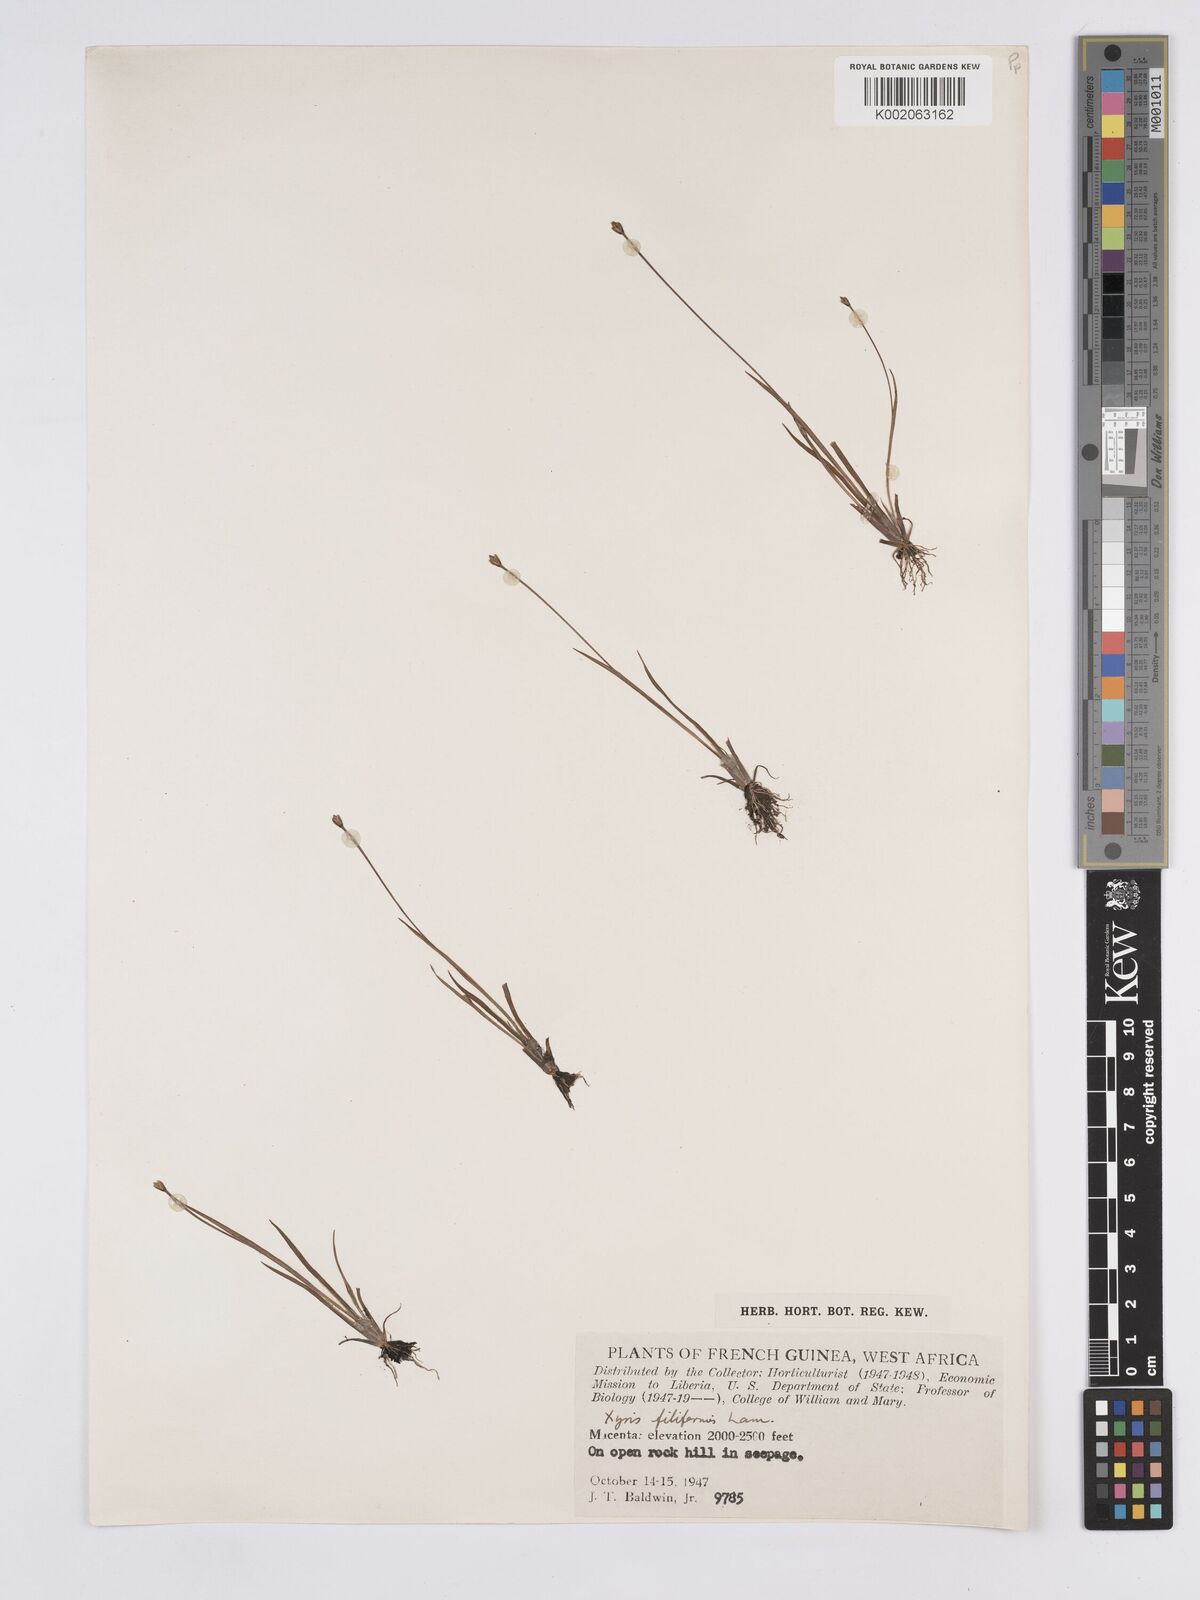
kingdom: Plantae
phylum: Tracheophyta
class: Liliopsida
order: Poales
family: Xyridaceae
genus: Xyris
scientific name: Xyris filiformis
